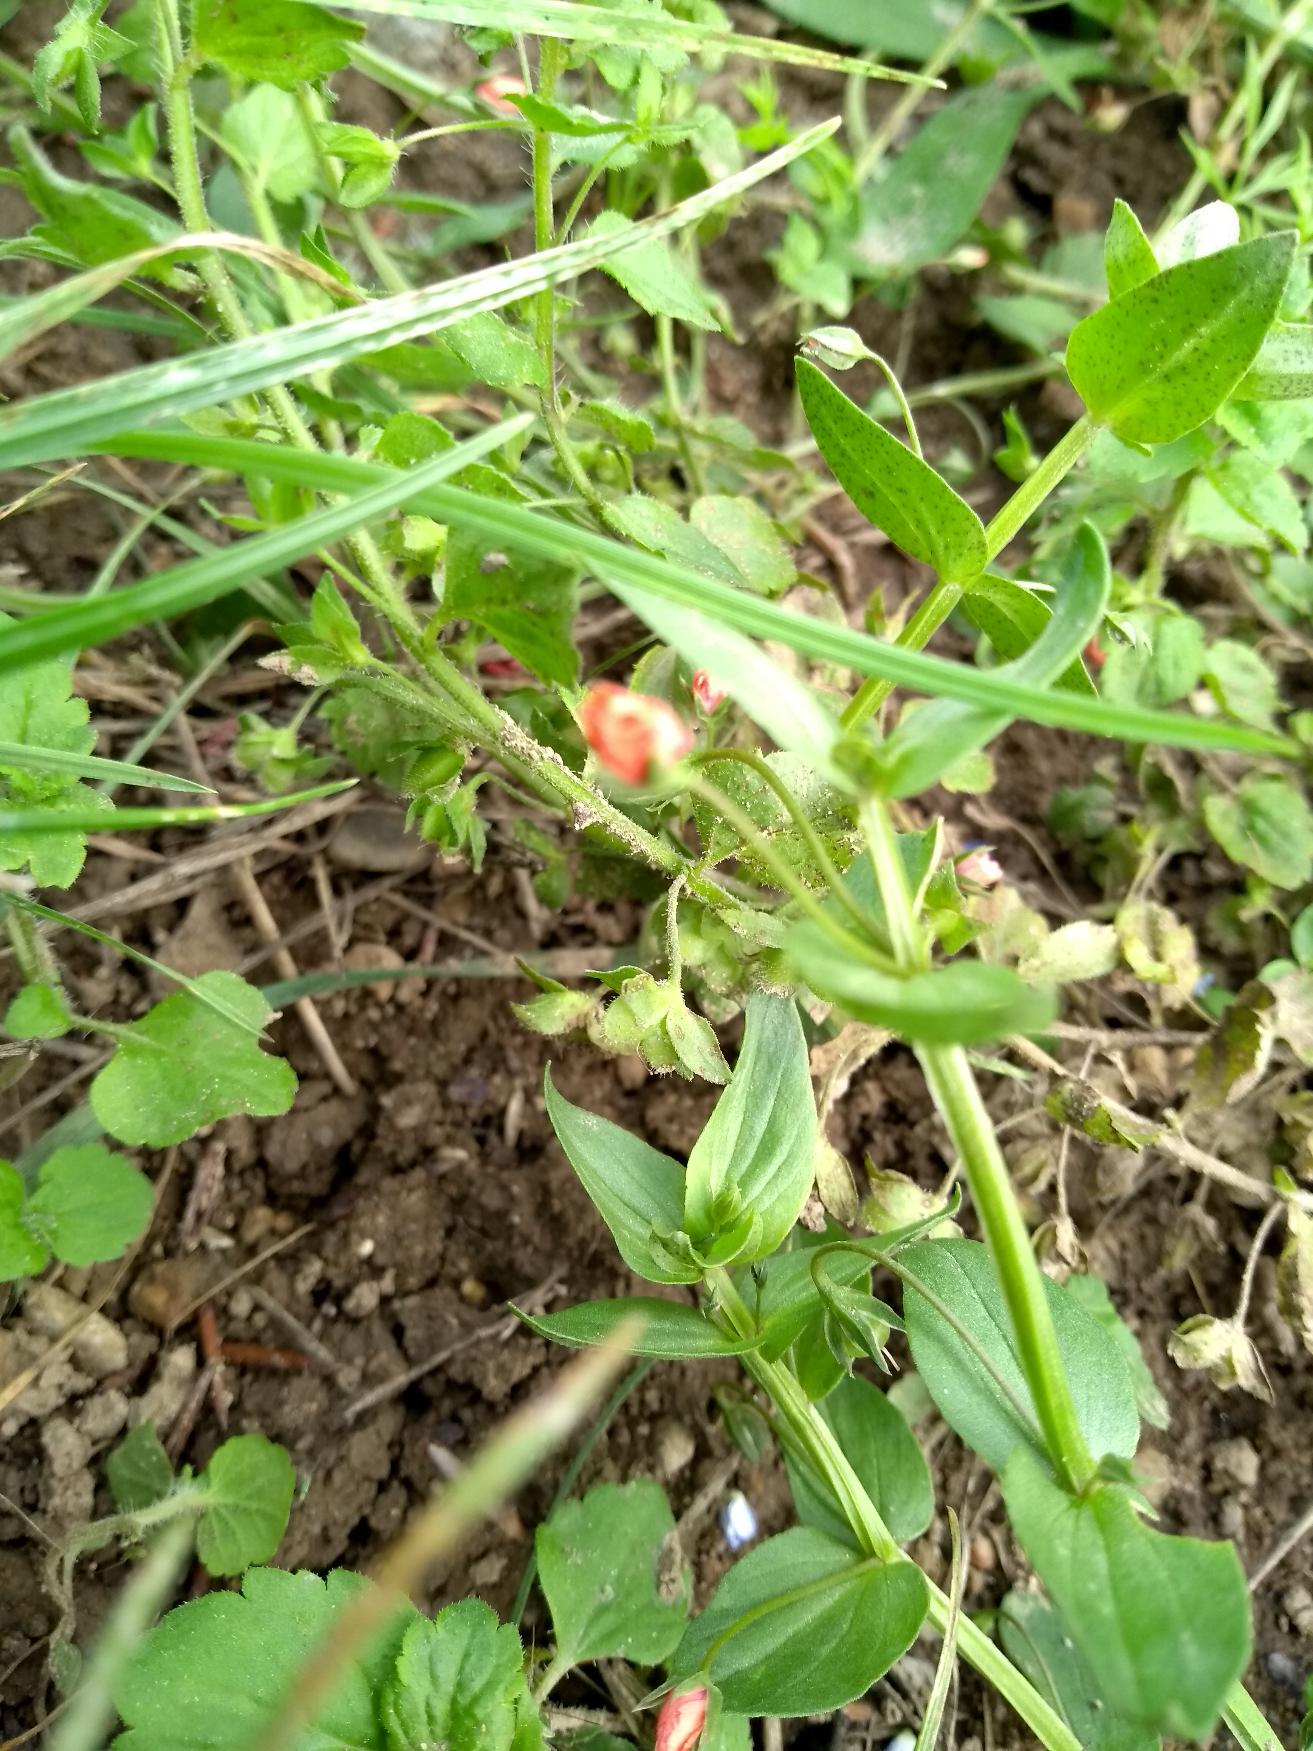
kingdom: Plantae
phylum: Tracheophyta
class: Magnoliopsida
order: Ericales
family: Primulaceae
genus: Lysimachia
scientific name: Lysimachia arvensis
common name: Rød arve
